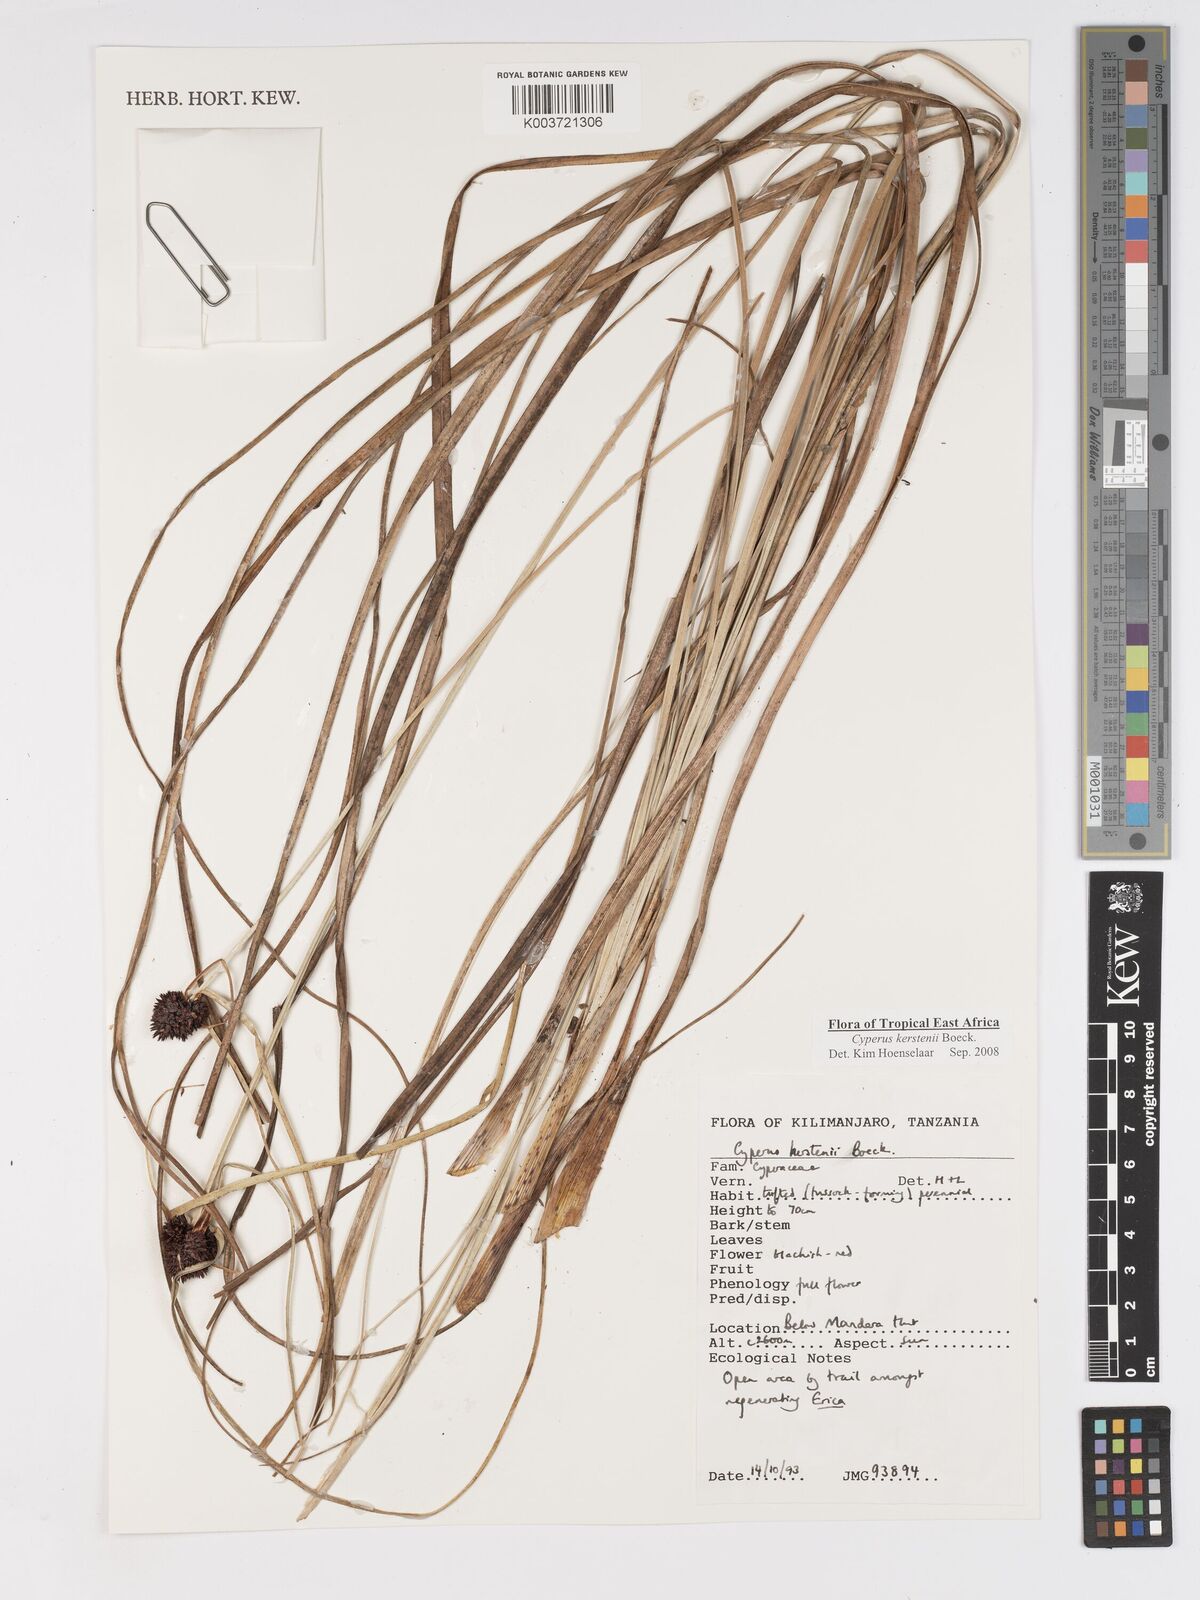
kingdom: Plantae
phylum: Tracheophyta
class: Liliopsida
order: Poales
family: Cyperaceae
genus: Cyperus
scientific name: Cyperus kerstenii
